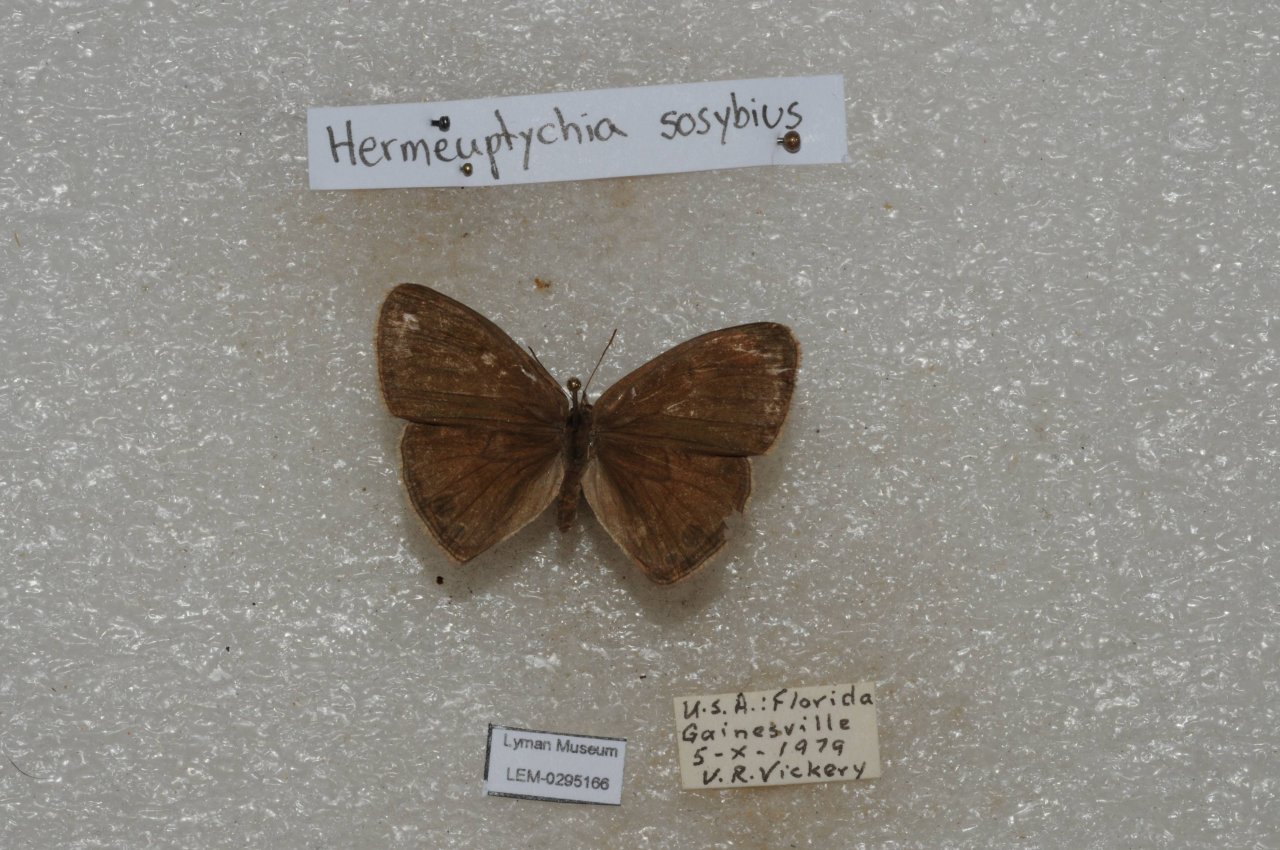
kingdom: Animalia
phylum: Arthropoda
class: Insecta
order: Lepidoptera
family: Nymphalidae
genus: Hermeuptychia
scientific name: Hermeuptychia hermes
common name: Carolina Satyr
